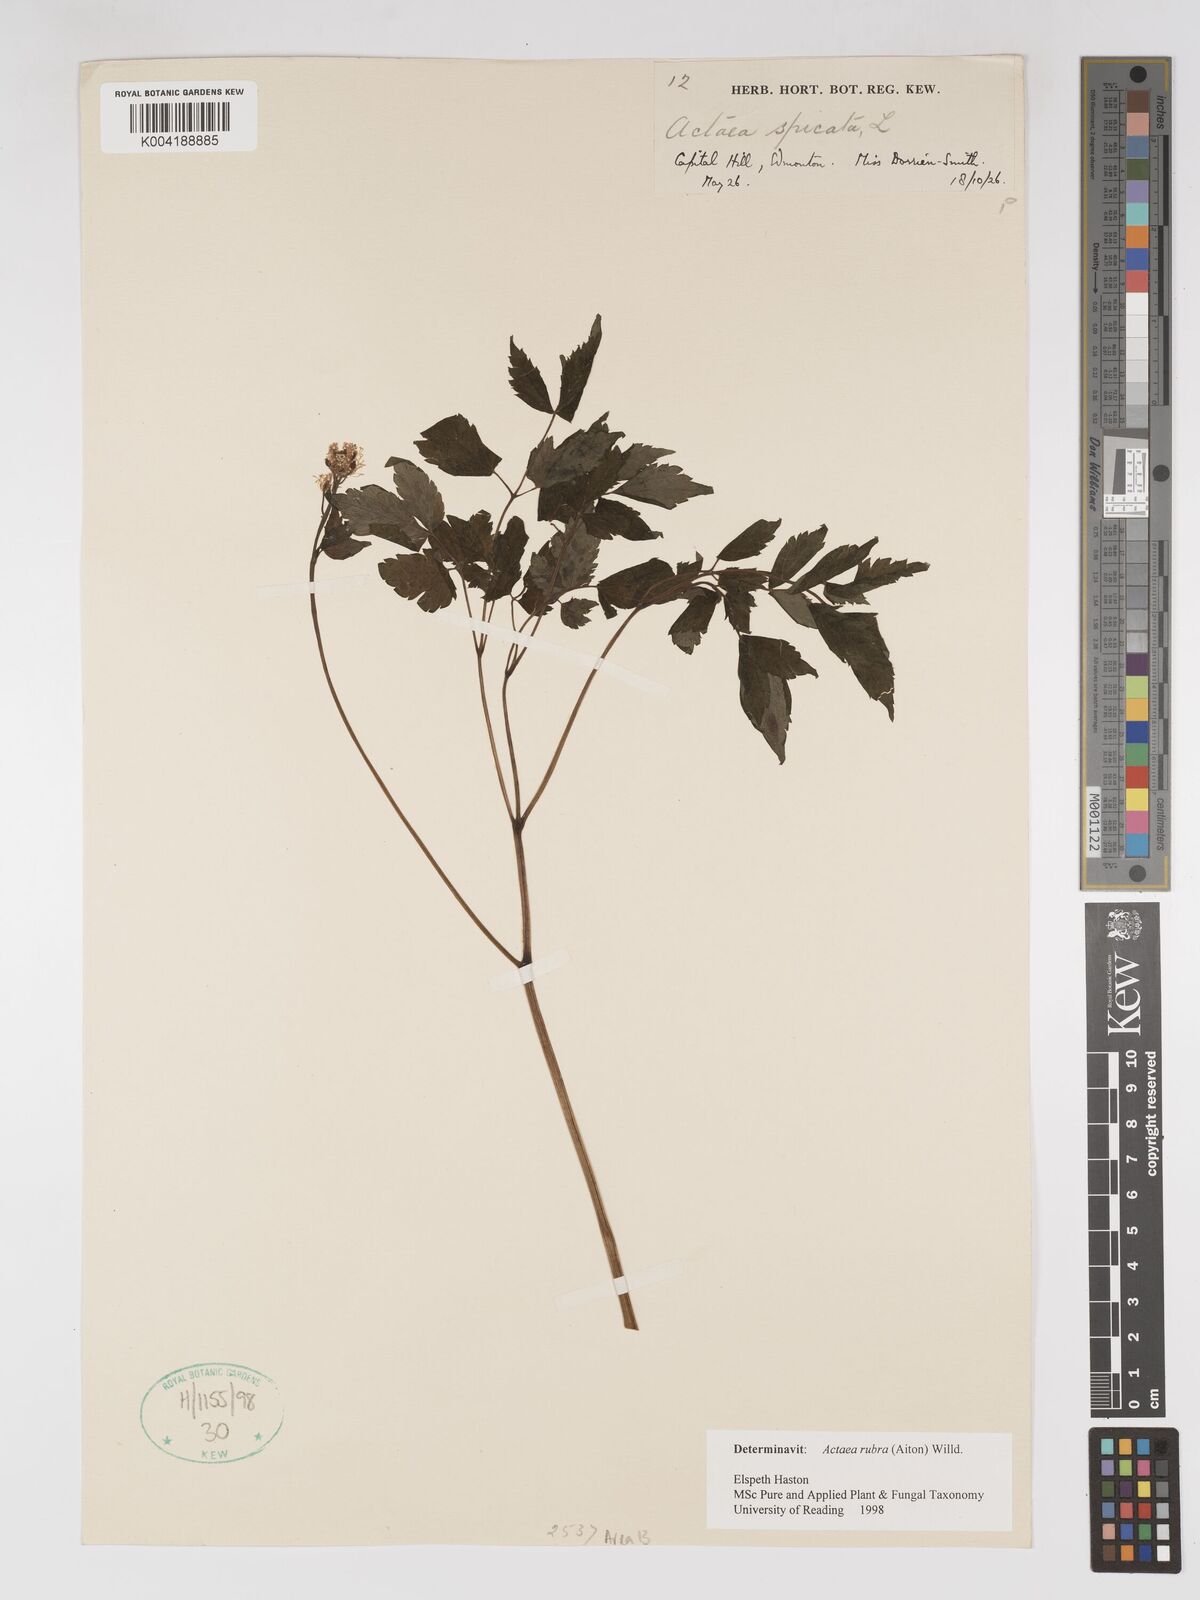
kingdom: Plantae
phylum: Tracheophyta
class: Magnoliopsida
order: Ranunculales
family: Ranunculaceae
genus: Actaea
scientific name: Actaea spicata
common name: Baneberry
